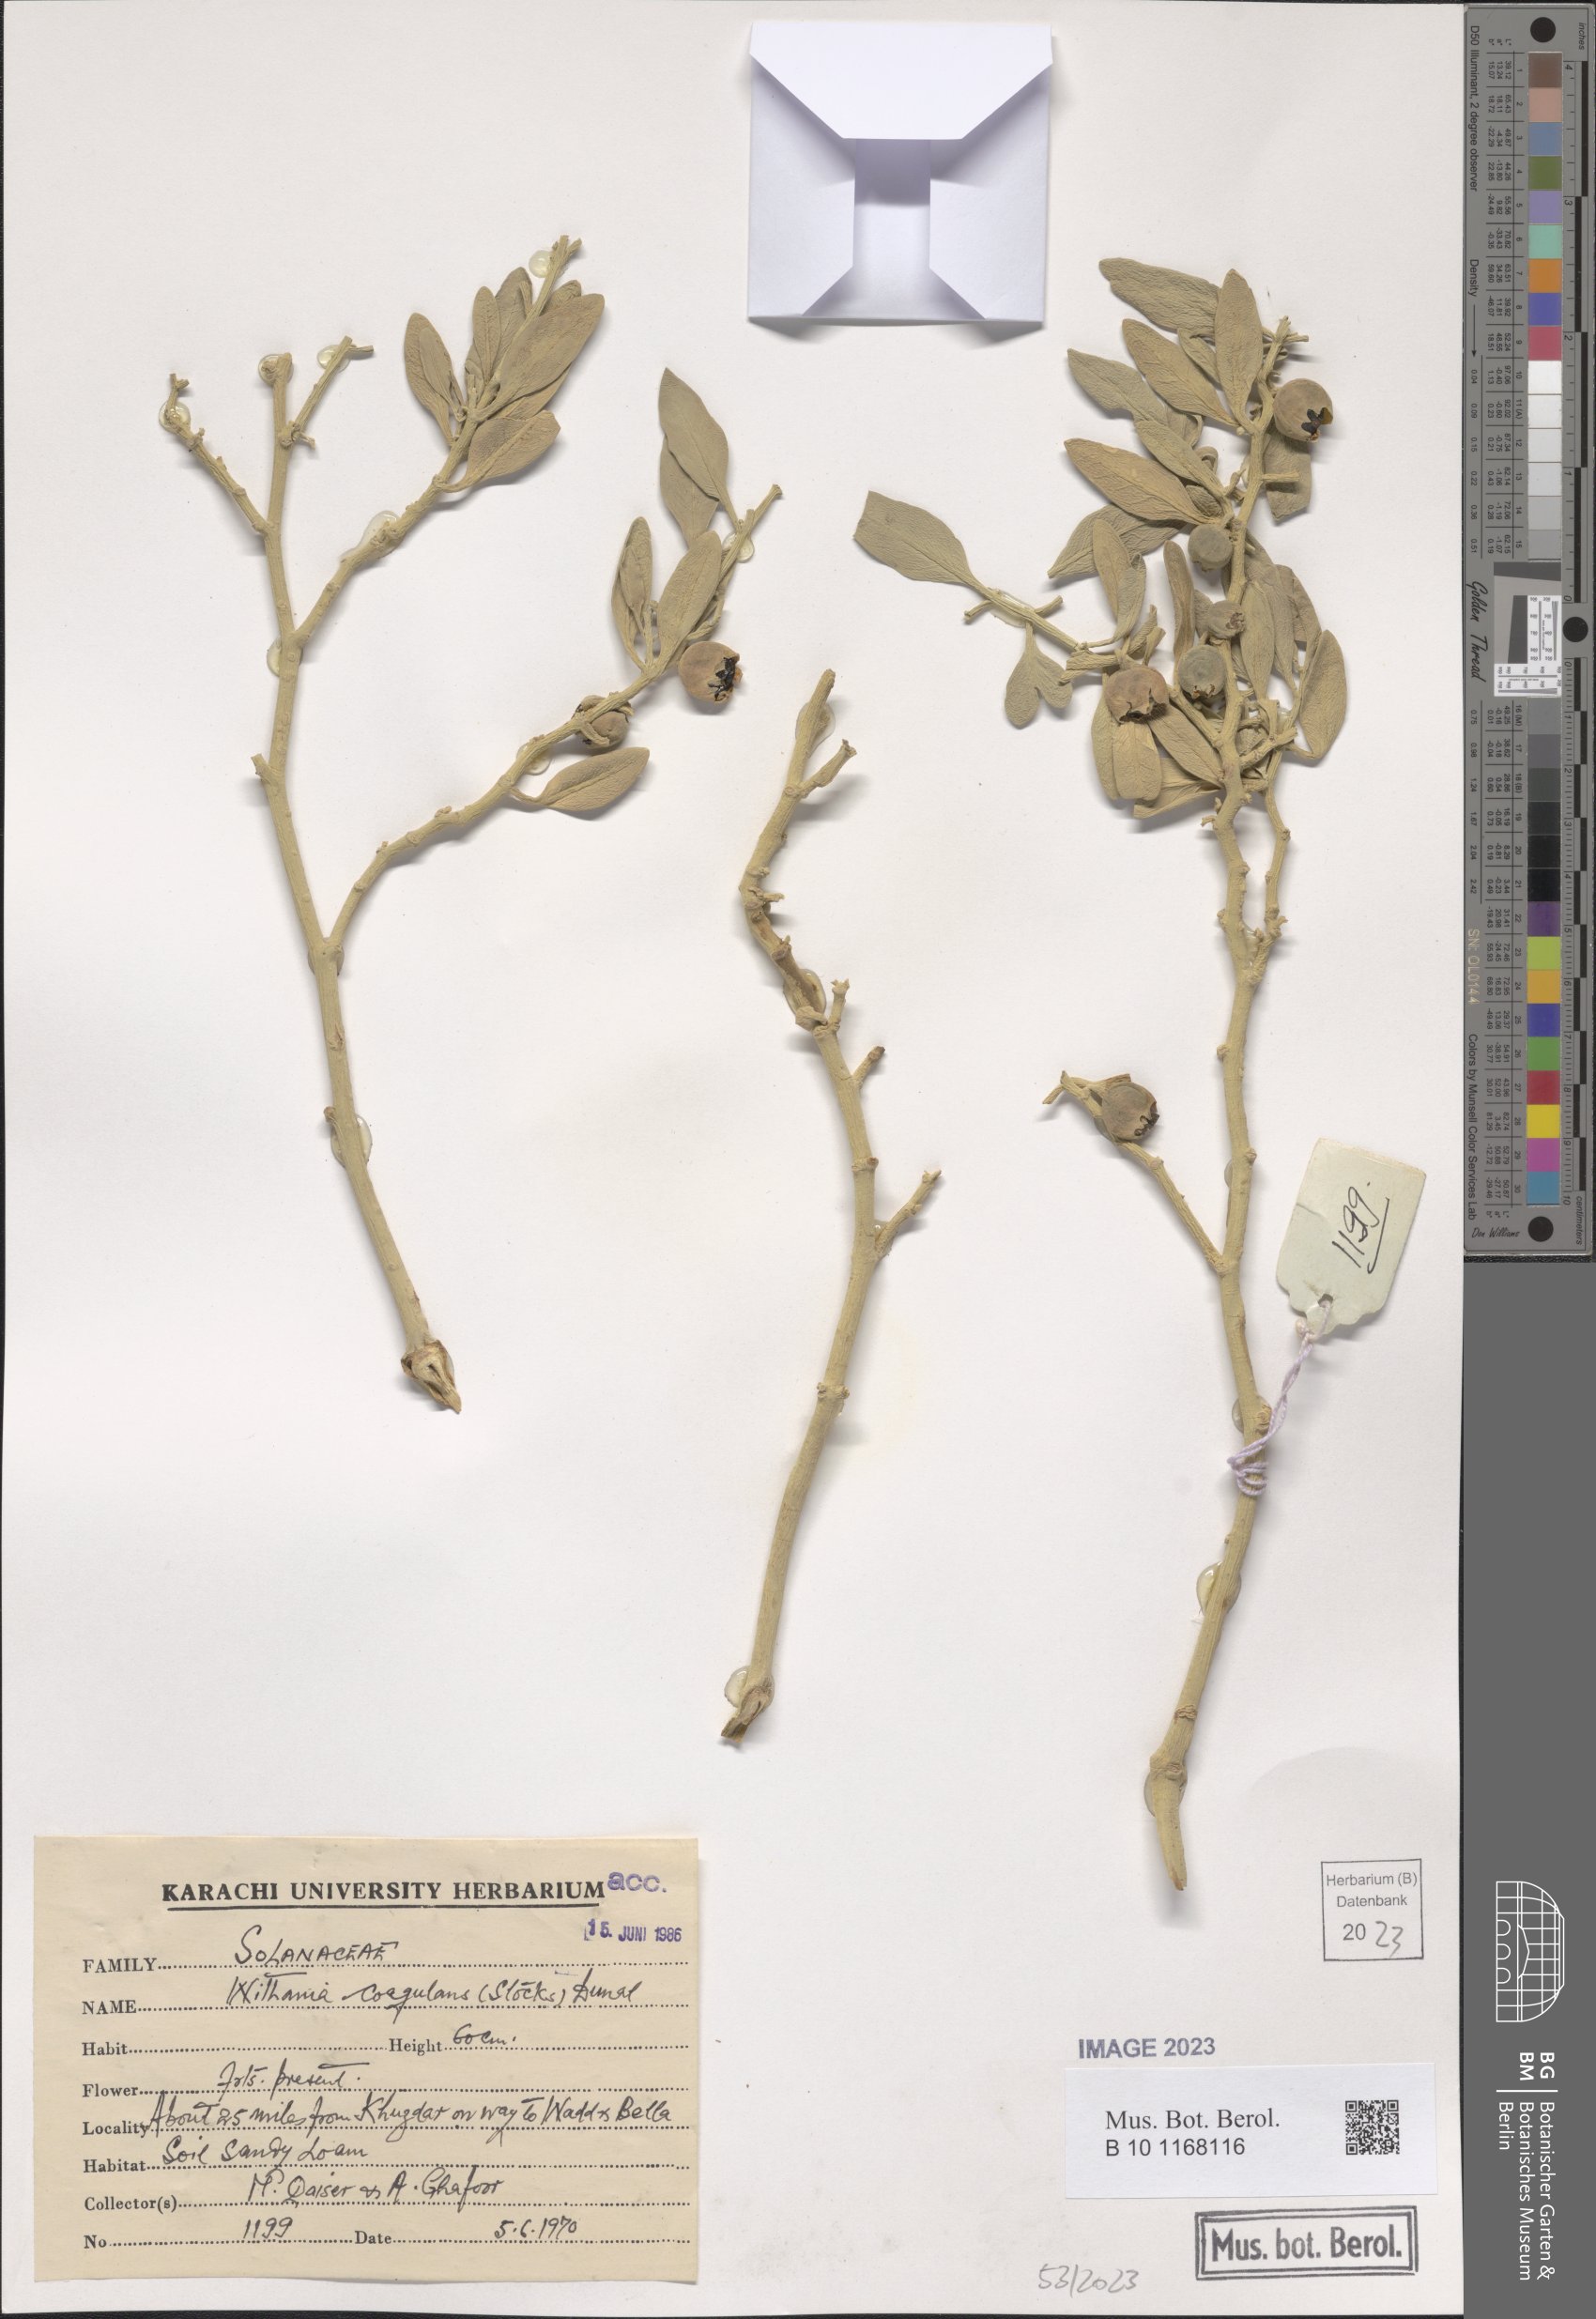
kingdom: Plantae
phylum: Tracheophyta
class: Magnoliopsida
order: Solanales
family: Solanaceae
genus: Withania
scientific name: Withania coagulans
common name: Vegetable rennet
